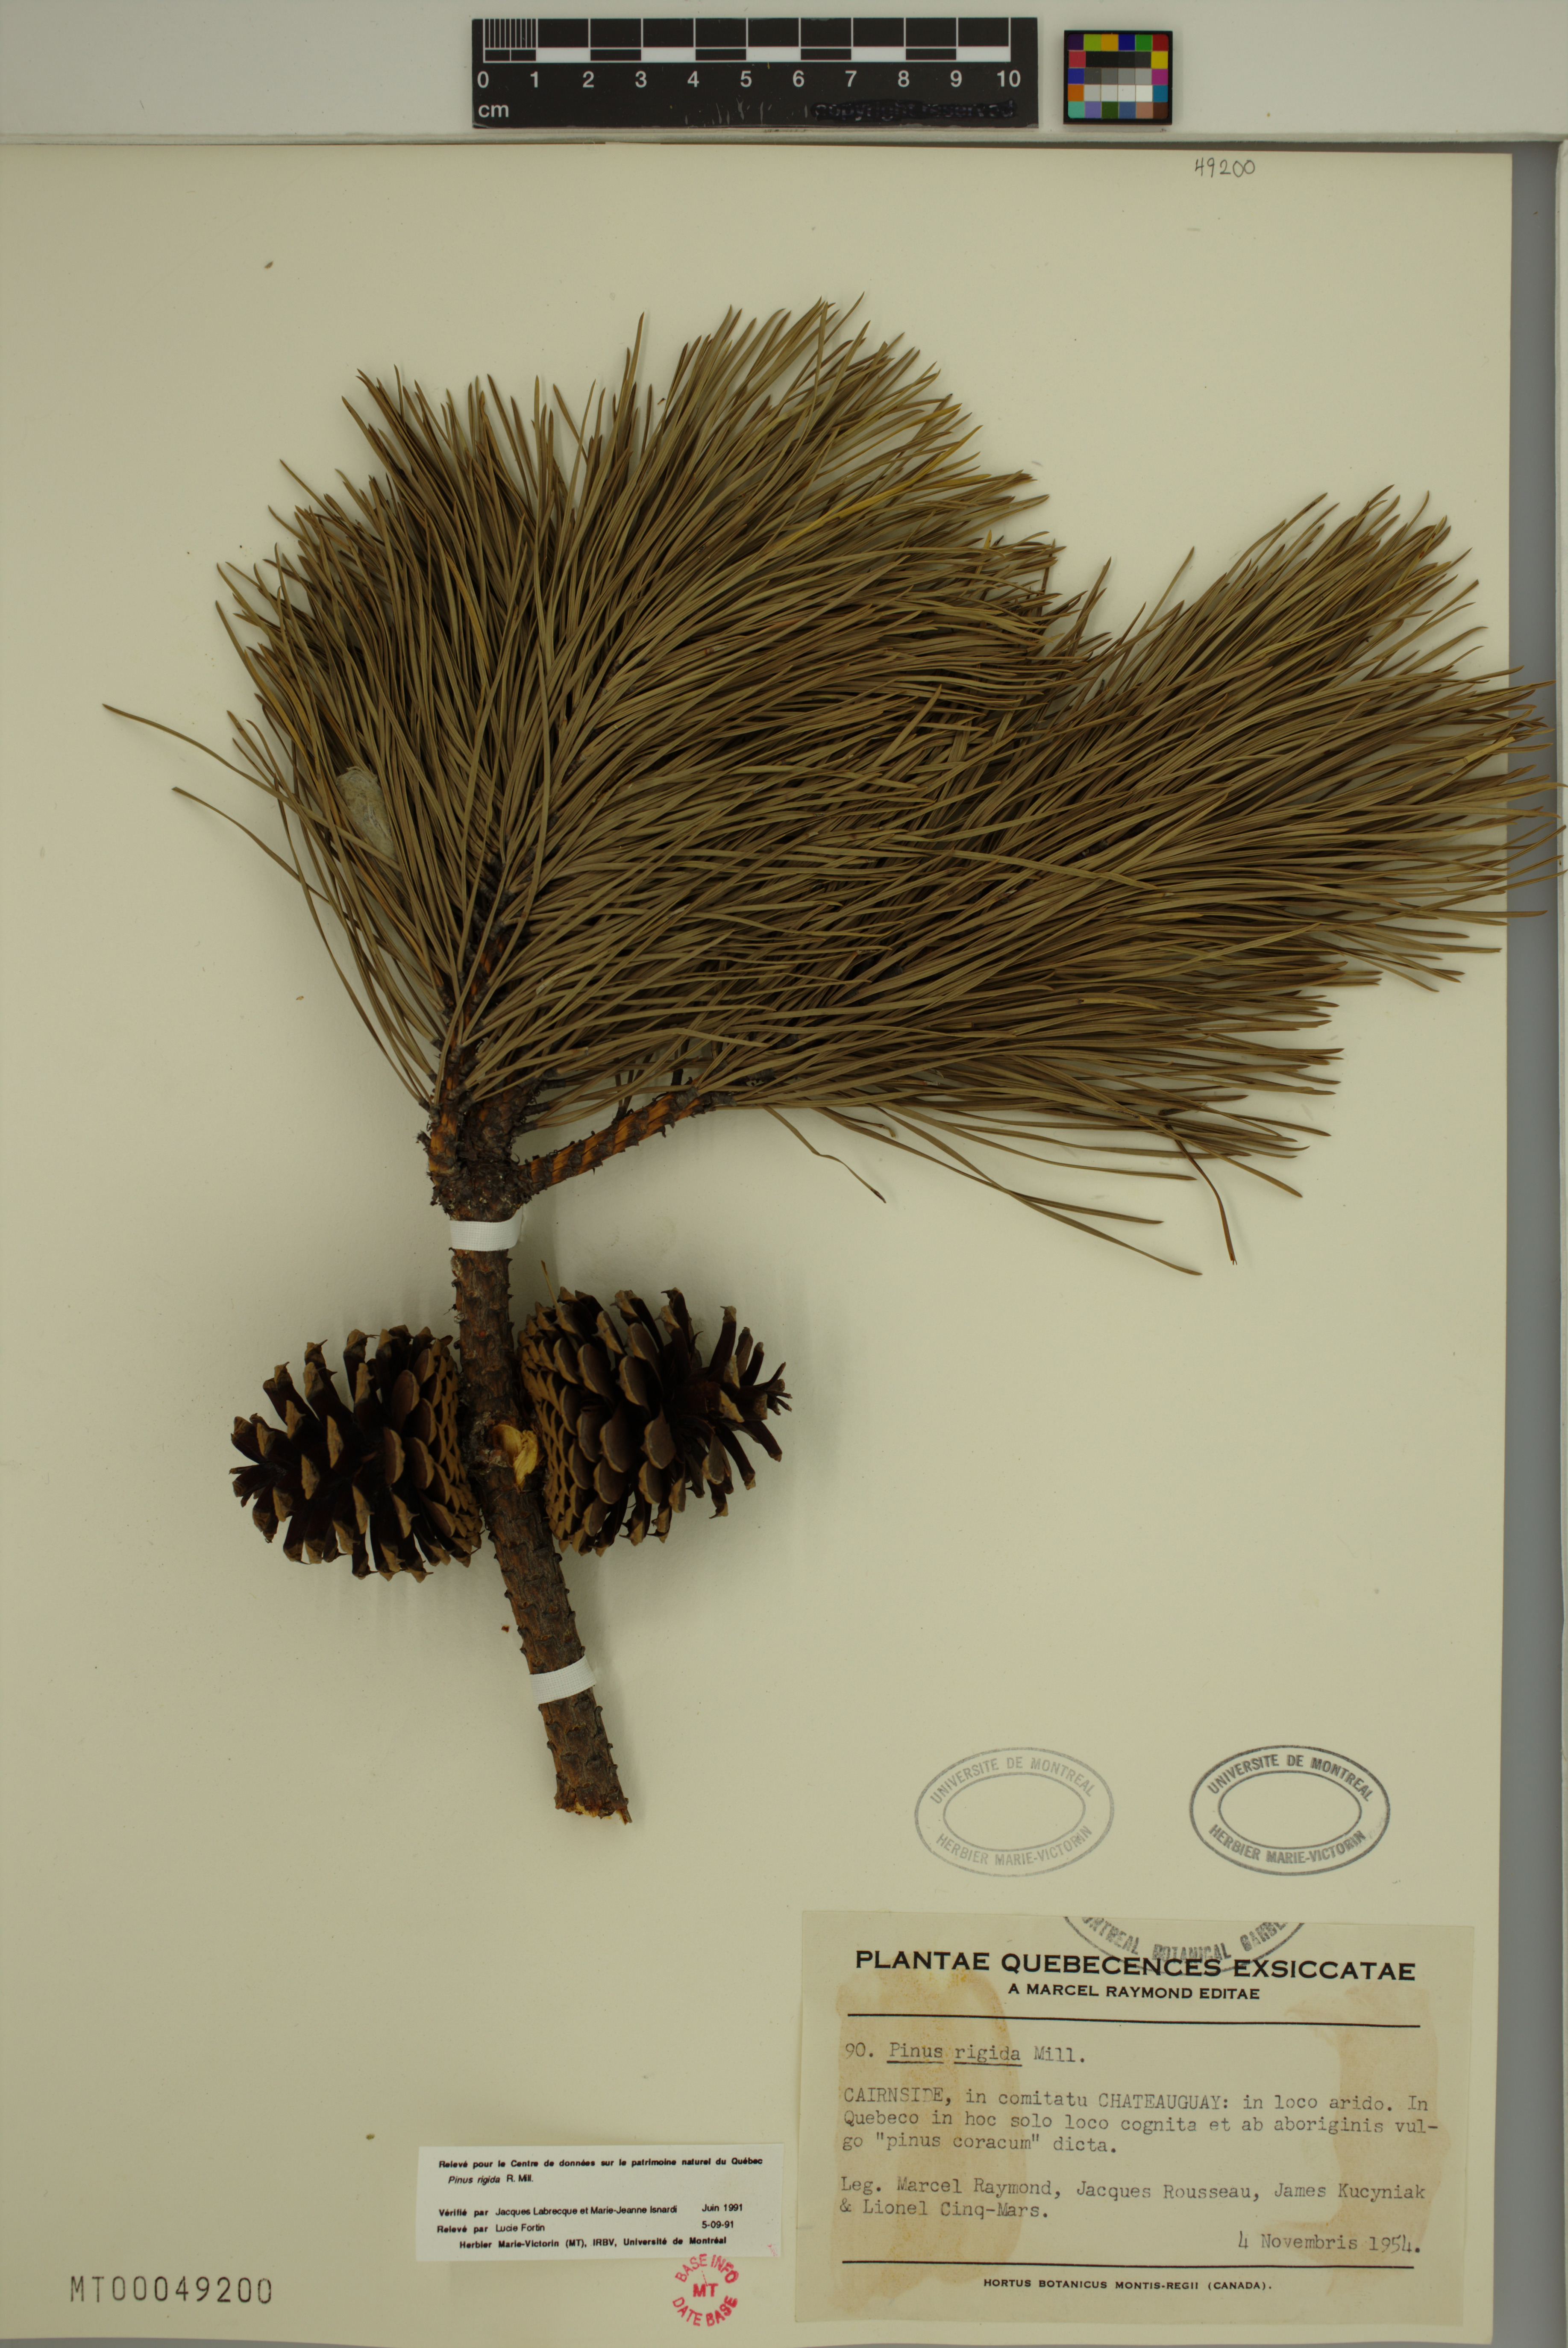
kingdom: Plantae
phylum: Tracheophyta
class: Pinopsida
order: Pinales
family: Pinaceae
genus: Pinus
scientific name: Pinus rigida
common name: Pitch pine
